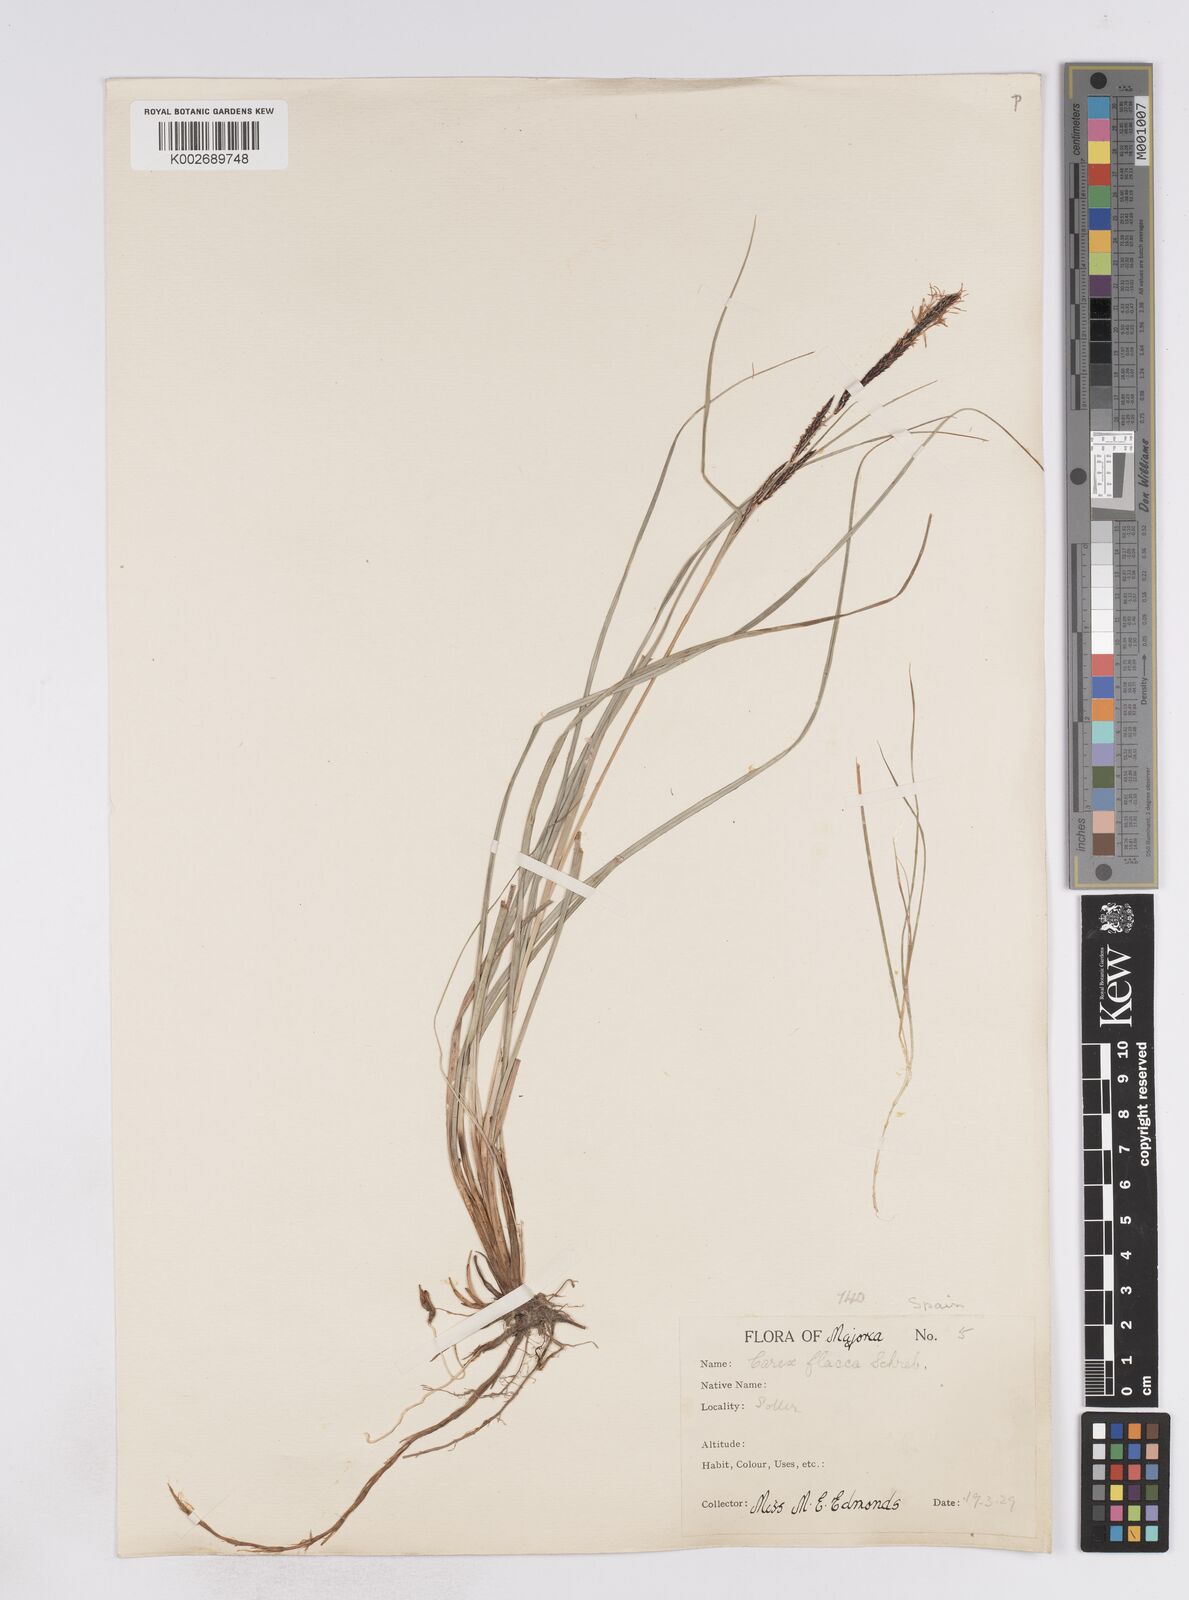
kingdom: Plantae
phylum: Tracheophyta
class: Liliopsida
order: Poales
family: Cyperaceae
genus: Carex
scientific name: Carex flacca
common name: Glaucous sedge
